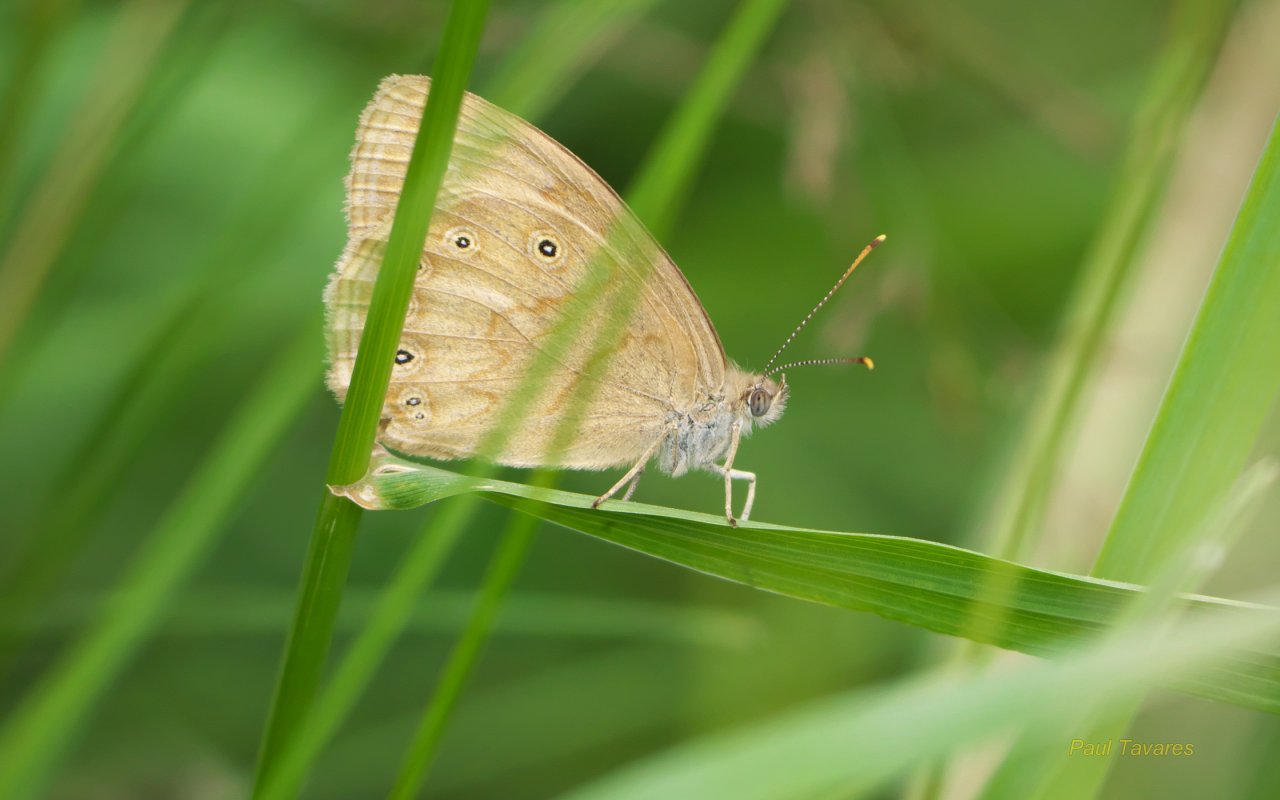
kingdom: Animalia
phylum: Arthropoda
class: Insecta
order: Lepidoptera
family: Nymphalidae
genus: Lethe
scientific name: Lethe eurydice
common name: Eyed Brown
